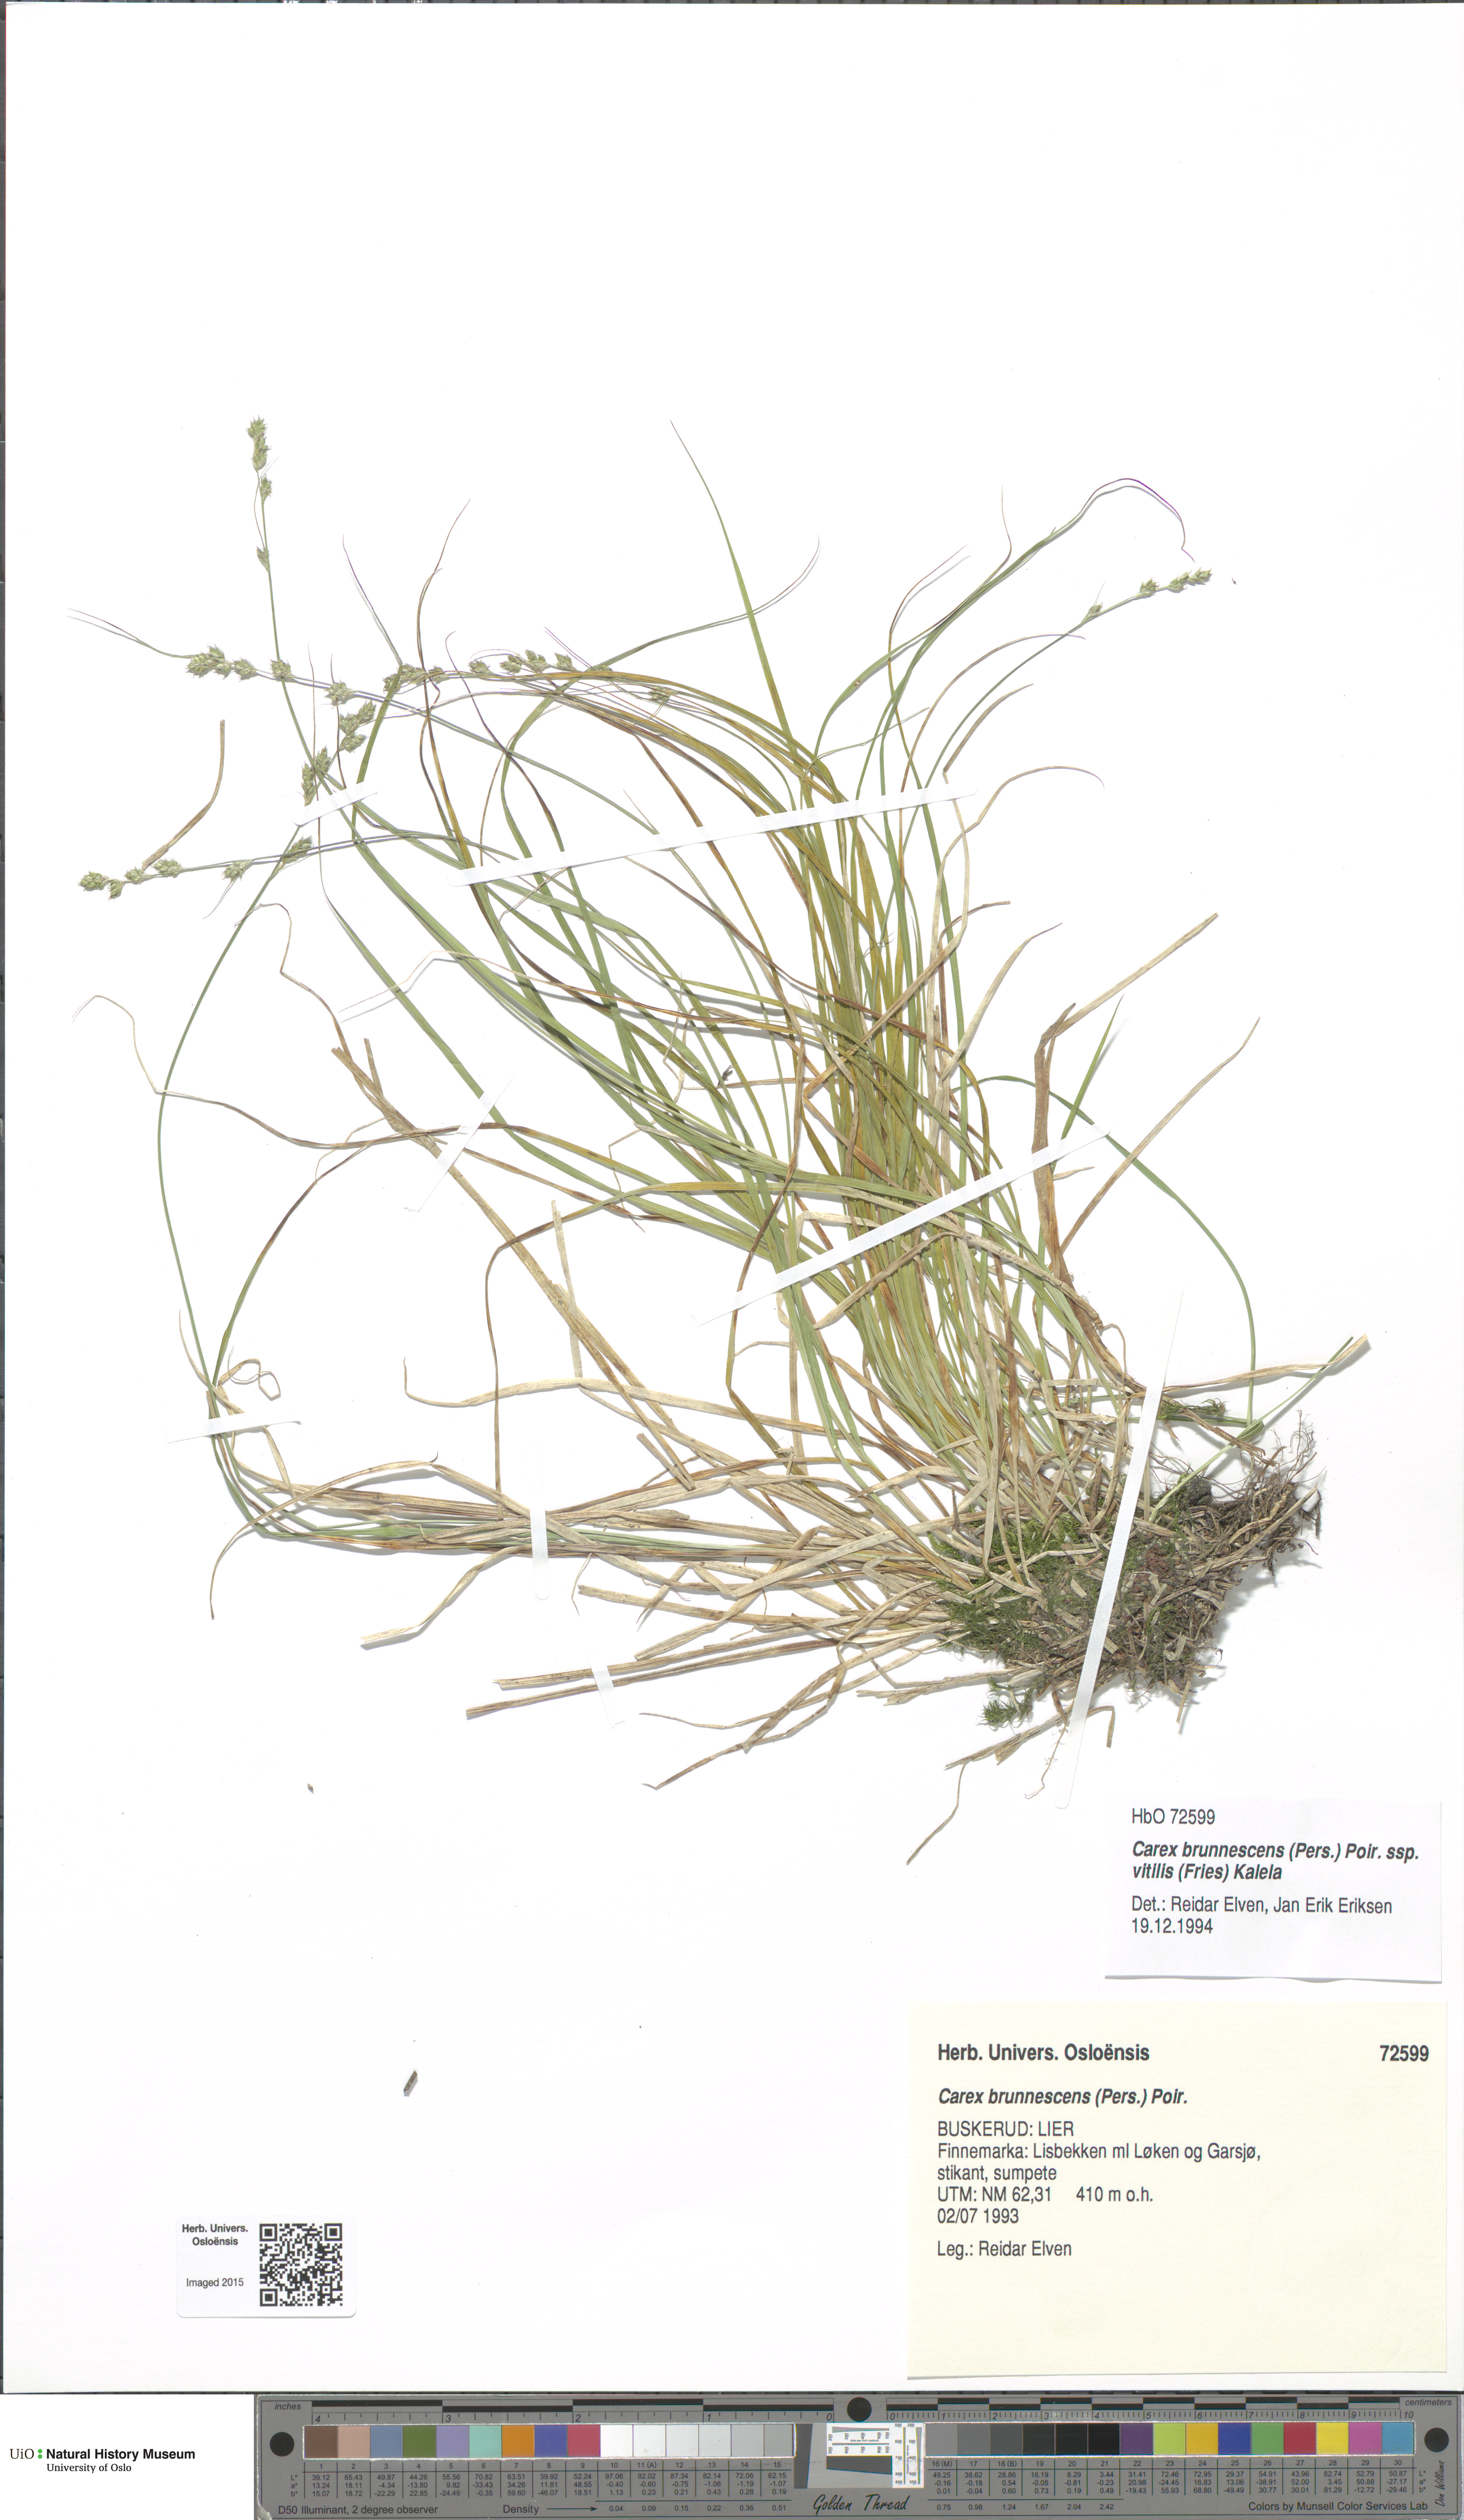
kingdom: Plantae
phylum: Tracheophyta
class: Liliopsida
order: Poales
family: Cyperaceae
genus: Carex
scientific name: Carex brunnescens
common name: Brown sedge
